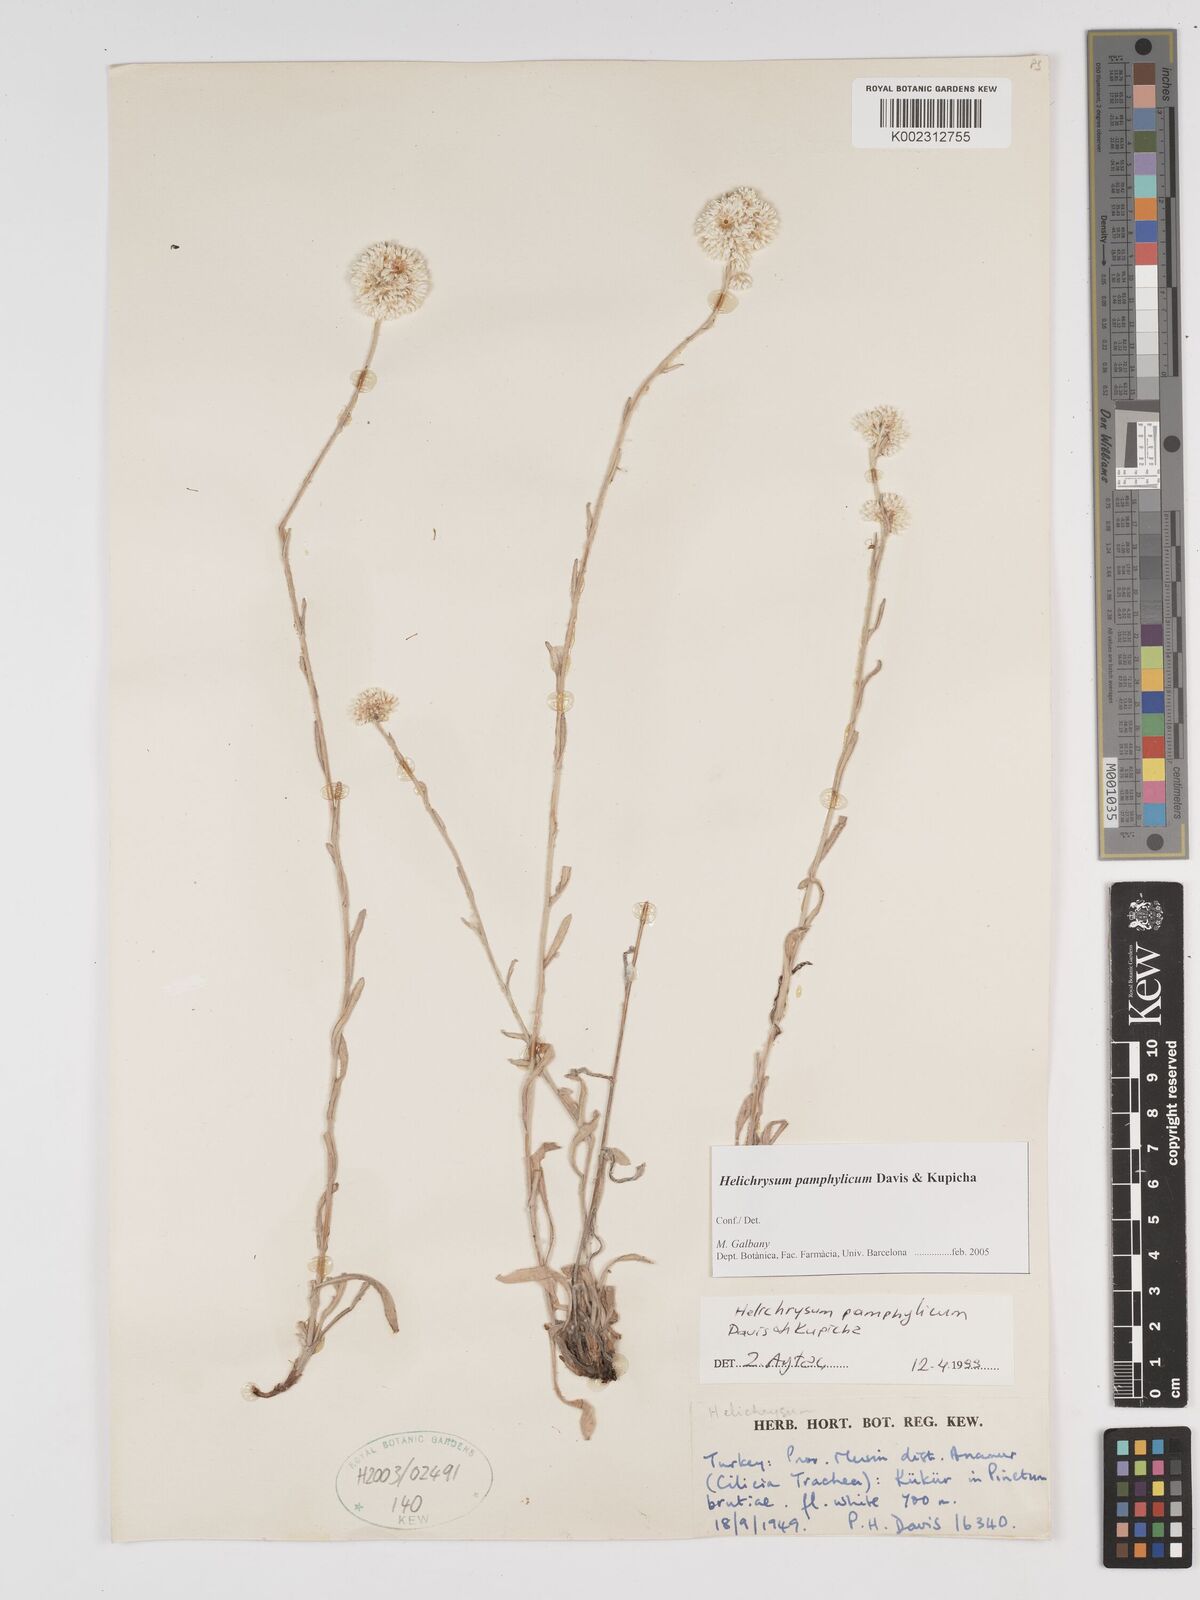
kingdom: Plantae
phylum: Tracheophyta
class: Magnoliopsida
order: Asterales
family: Asteraceae
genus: Helichrysum
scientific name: Helichrysum pamphylicum
